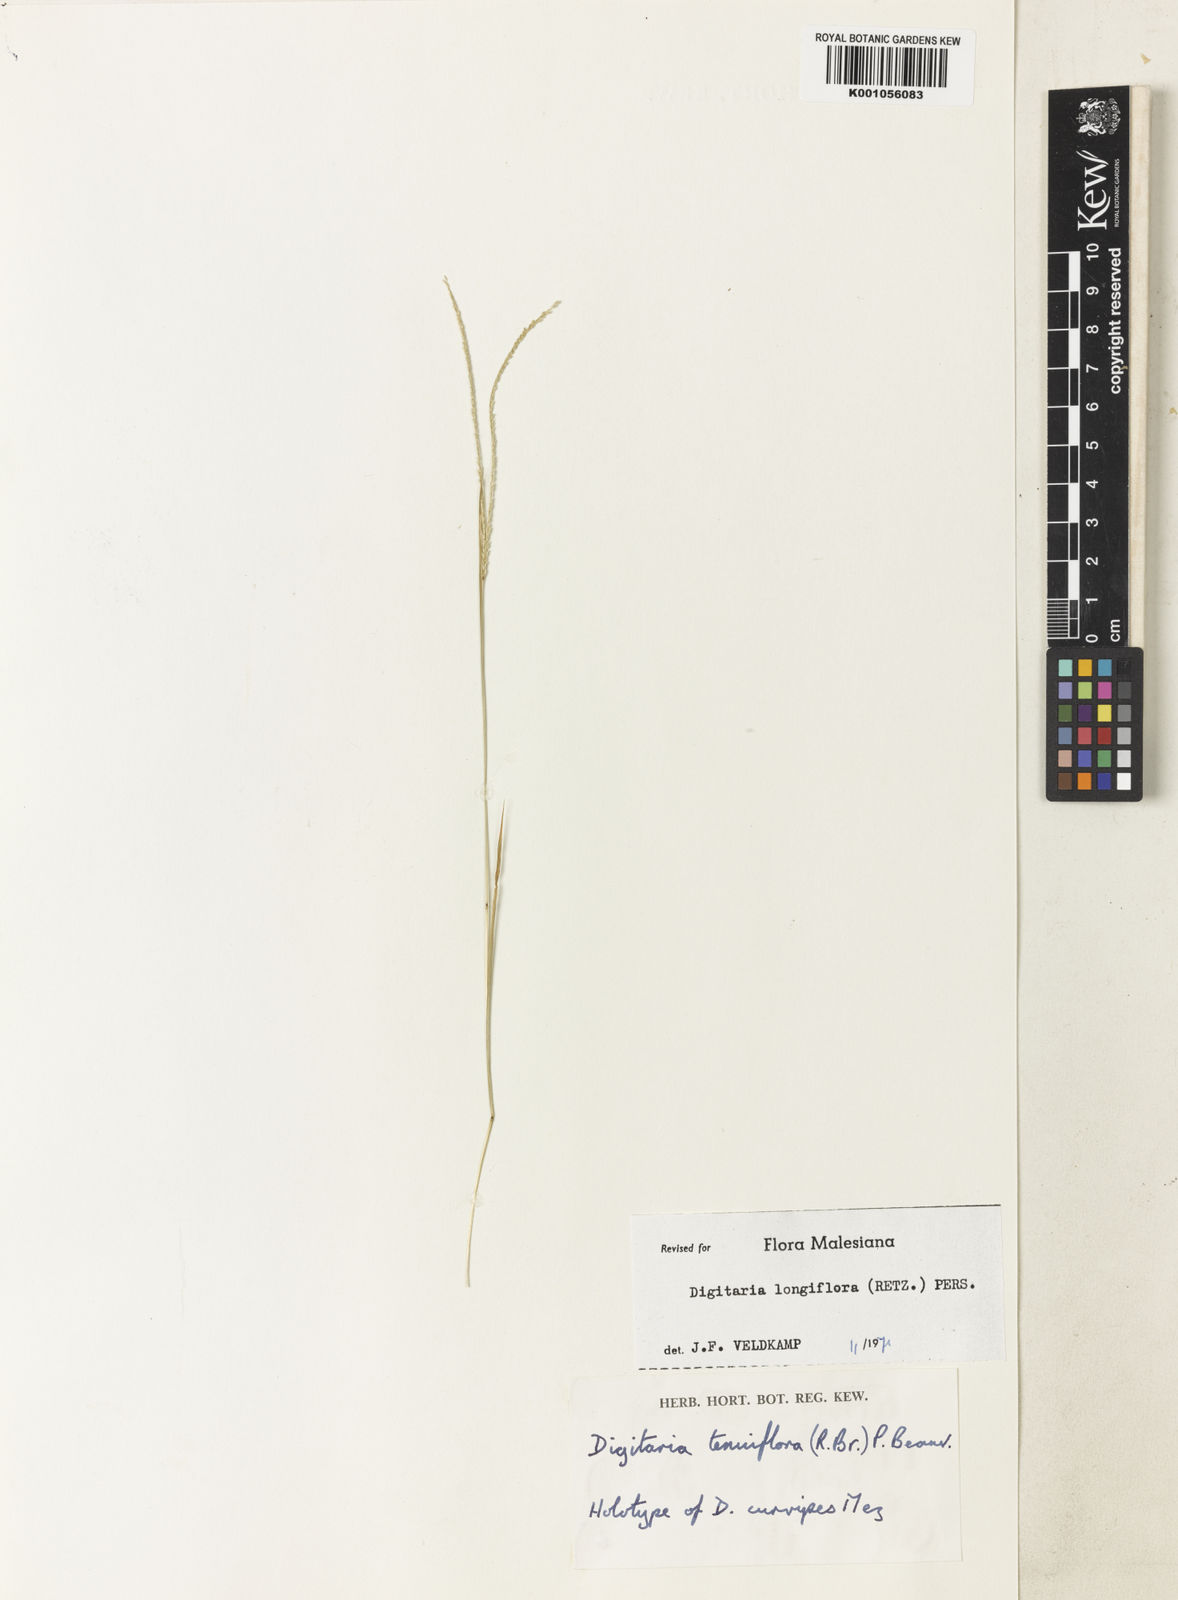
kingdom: Plantae
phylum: Tracheophyta
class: Liliopsida
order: Poales
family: Poaceae
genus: Digitaria
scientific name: Digitaria longiflora
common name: Wire crabgrass
